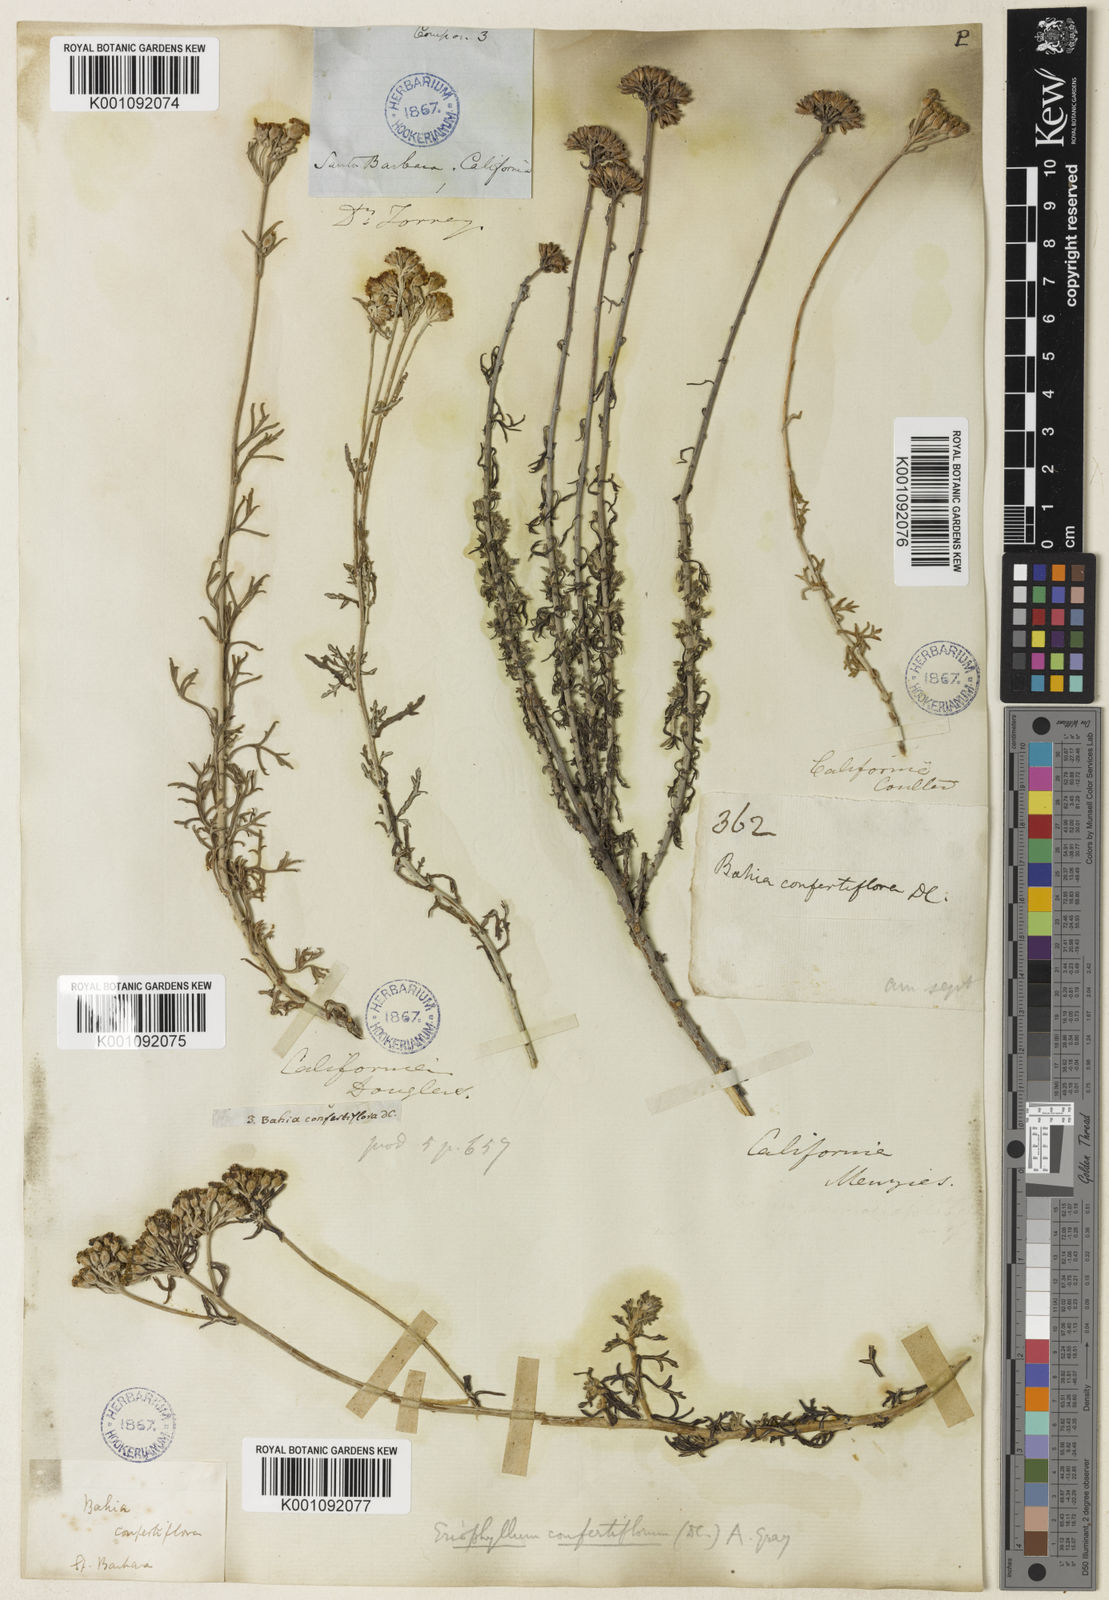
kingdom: Plantae
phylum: Tracheophyta
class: Magnoliopsida
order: Asterales
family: Asteraceae
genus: Eriophyllum
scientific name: Eriophyllum confertiflorum
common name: Golden-yarrow
